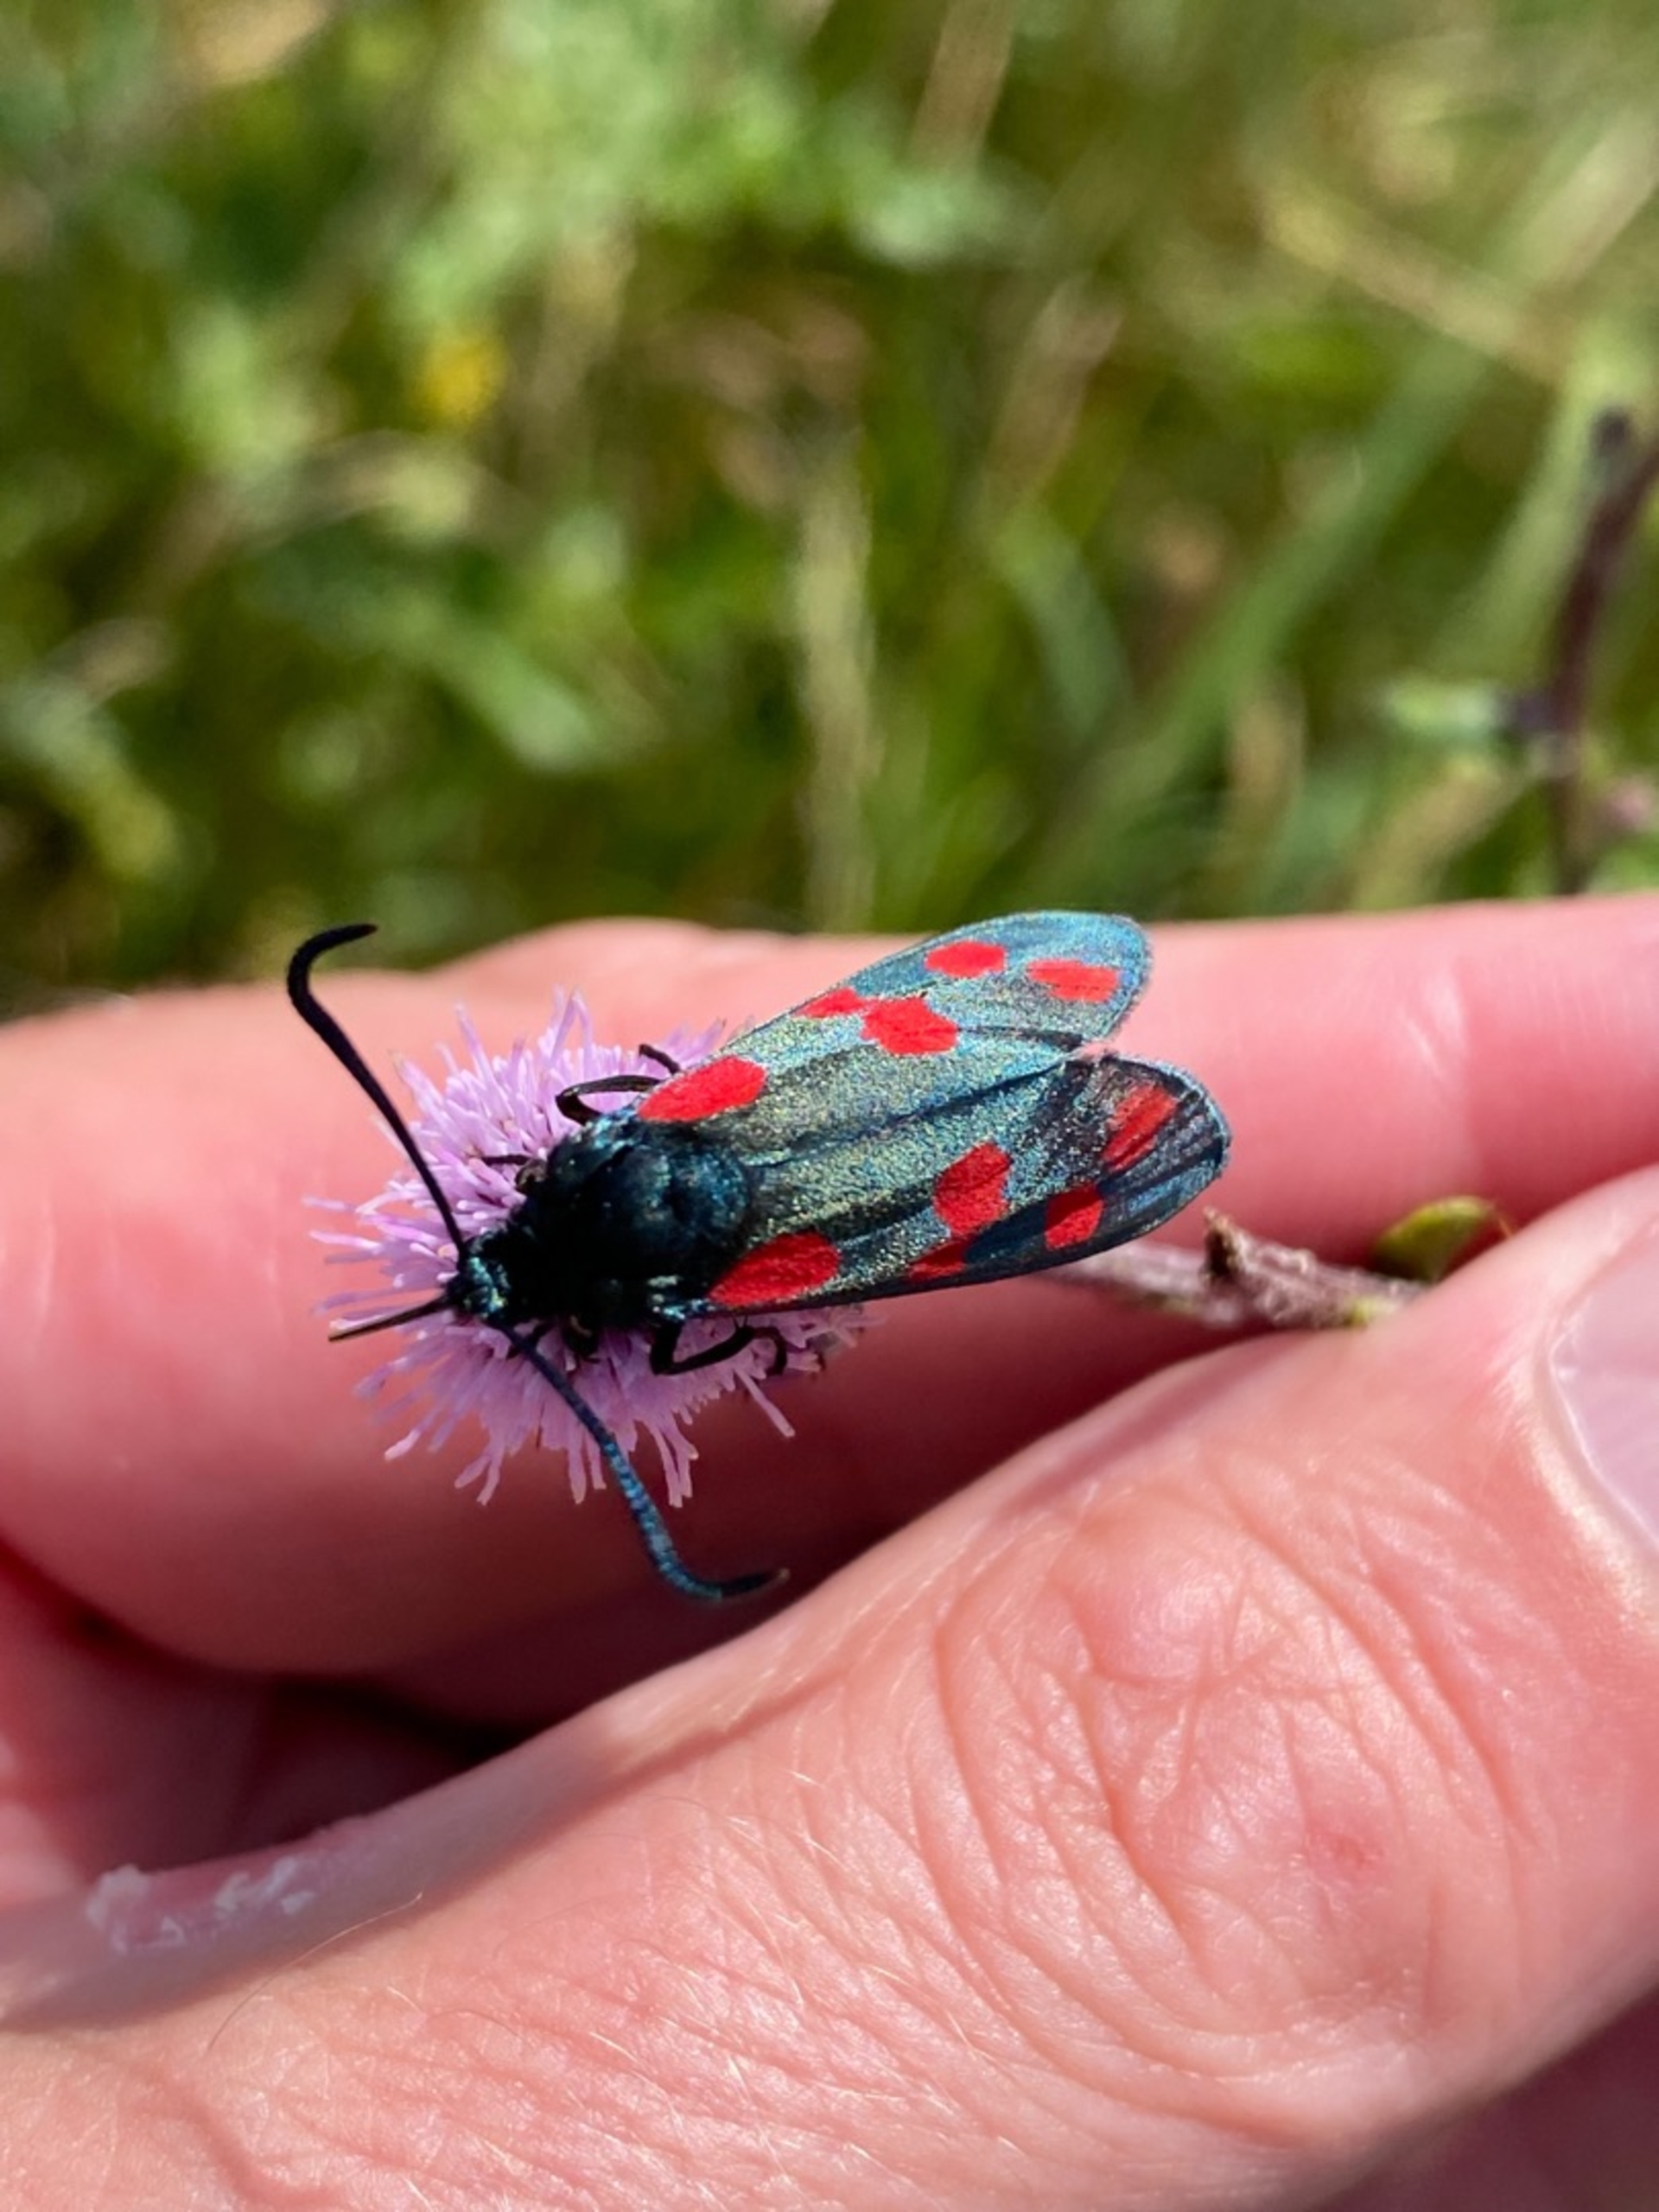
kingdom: Animalia
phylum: Arthropoda
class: Insecta
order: Lepidoptera
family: Zygaenidae
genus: Zygaena
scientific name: Zygaena filipendulae
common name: Seksplettet køllesværmer
